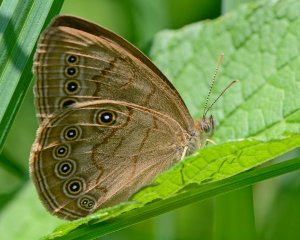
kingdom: Animalia
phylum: Arthropoda
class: Insecta
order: Lepidoptera
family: Nymphalidae
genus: Lethe
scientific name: Lethe eurydice
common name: Eyed Brown
